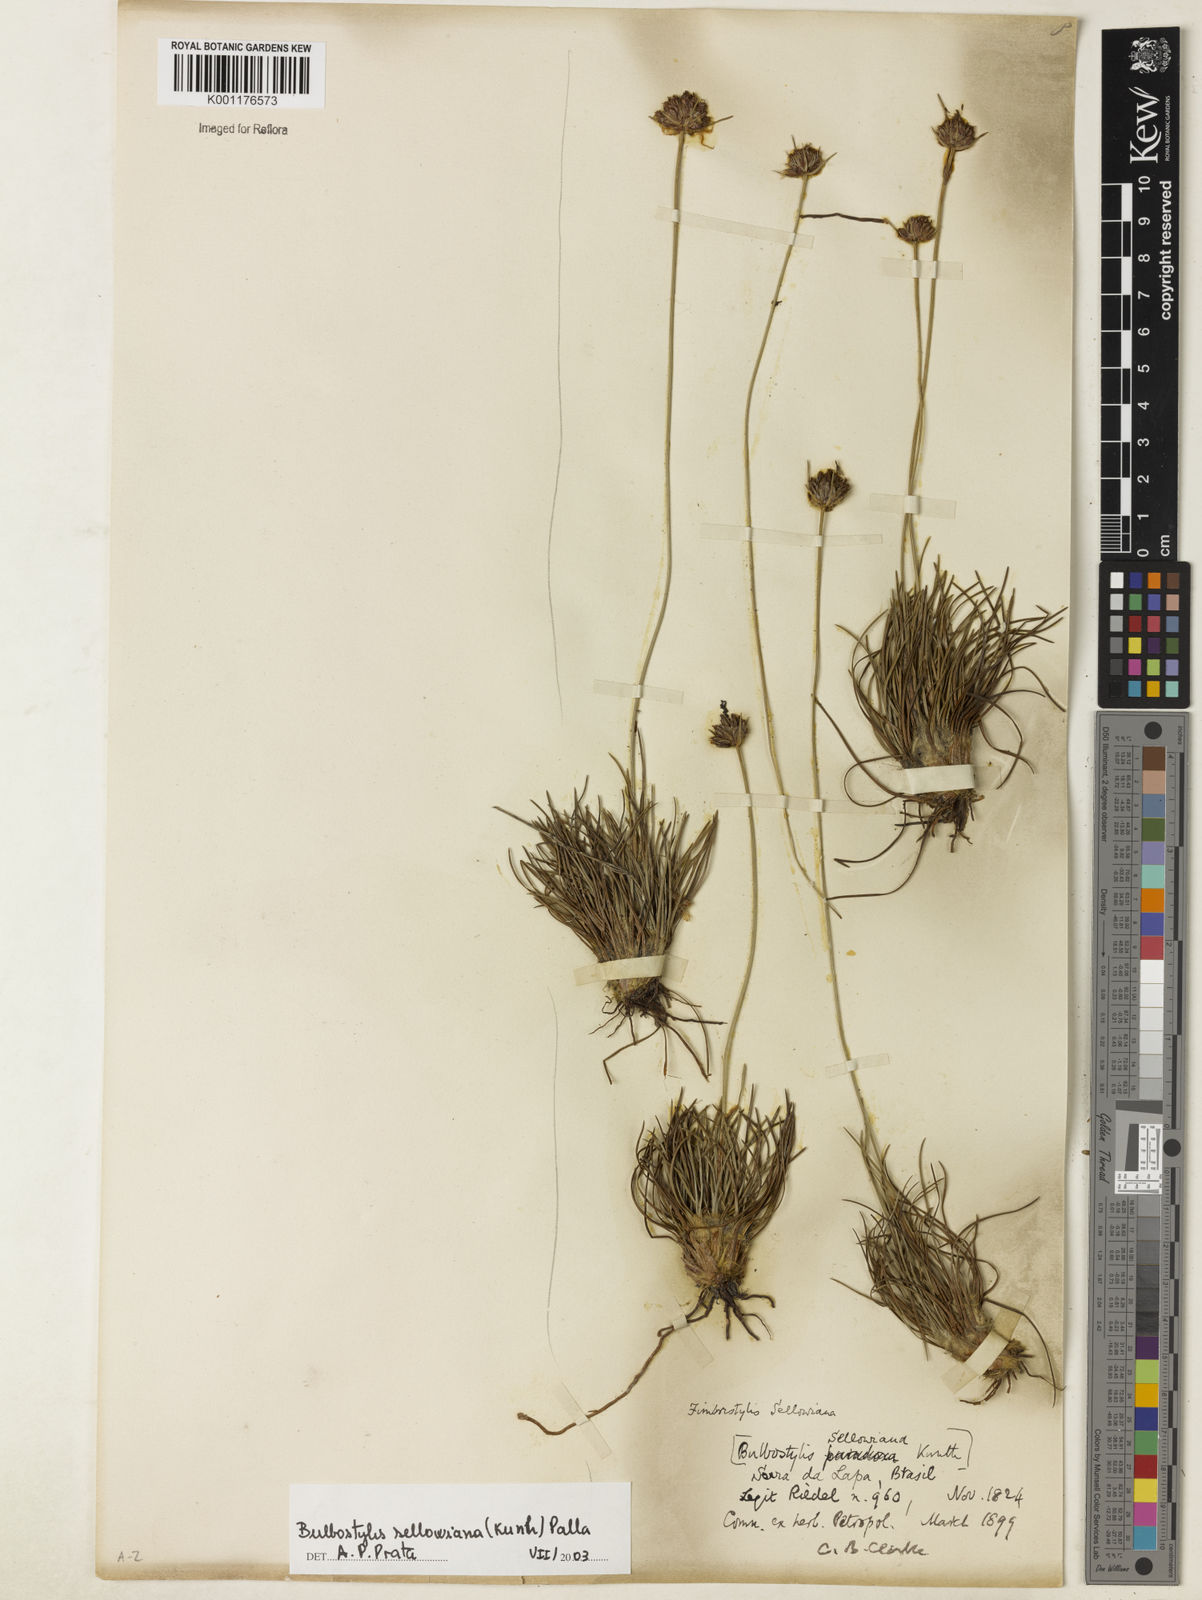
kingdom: Plantae
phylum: Tracheophyta
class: Liliopsida
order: Poales
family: Cyperaceae
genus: Bulbostylis
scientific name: Bulbostylis sellowiana
